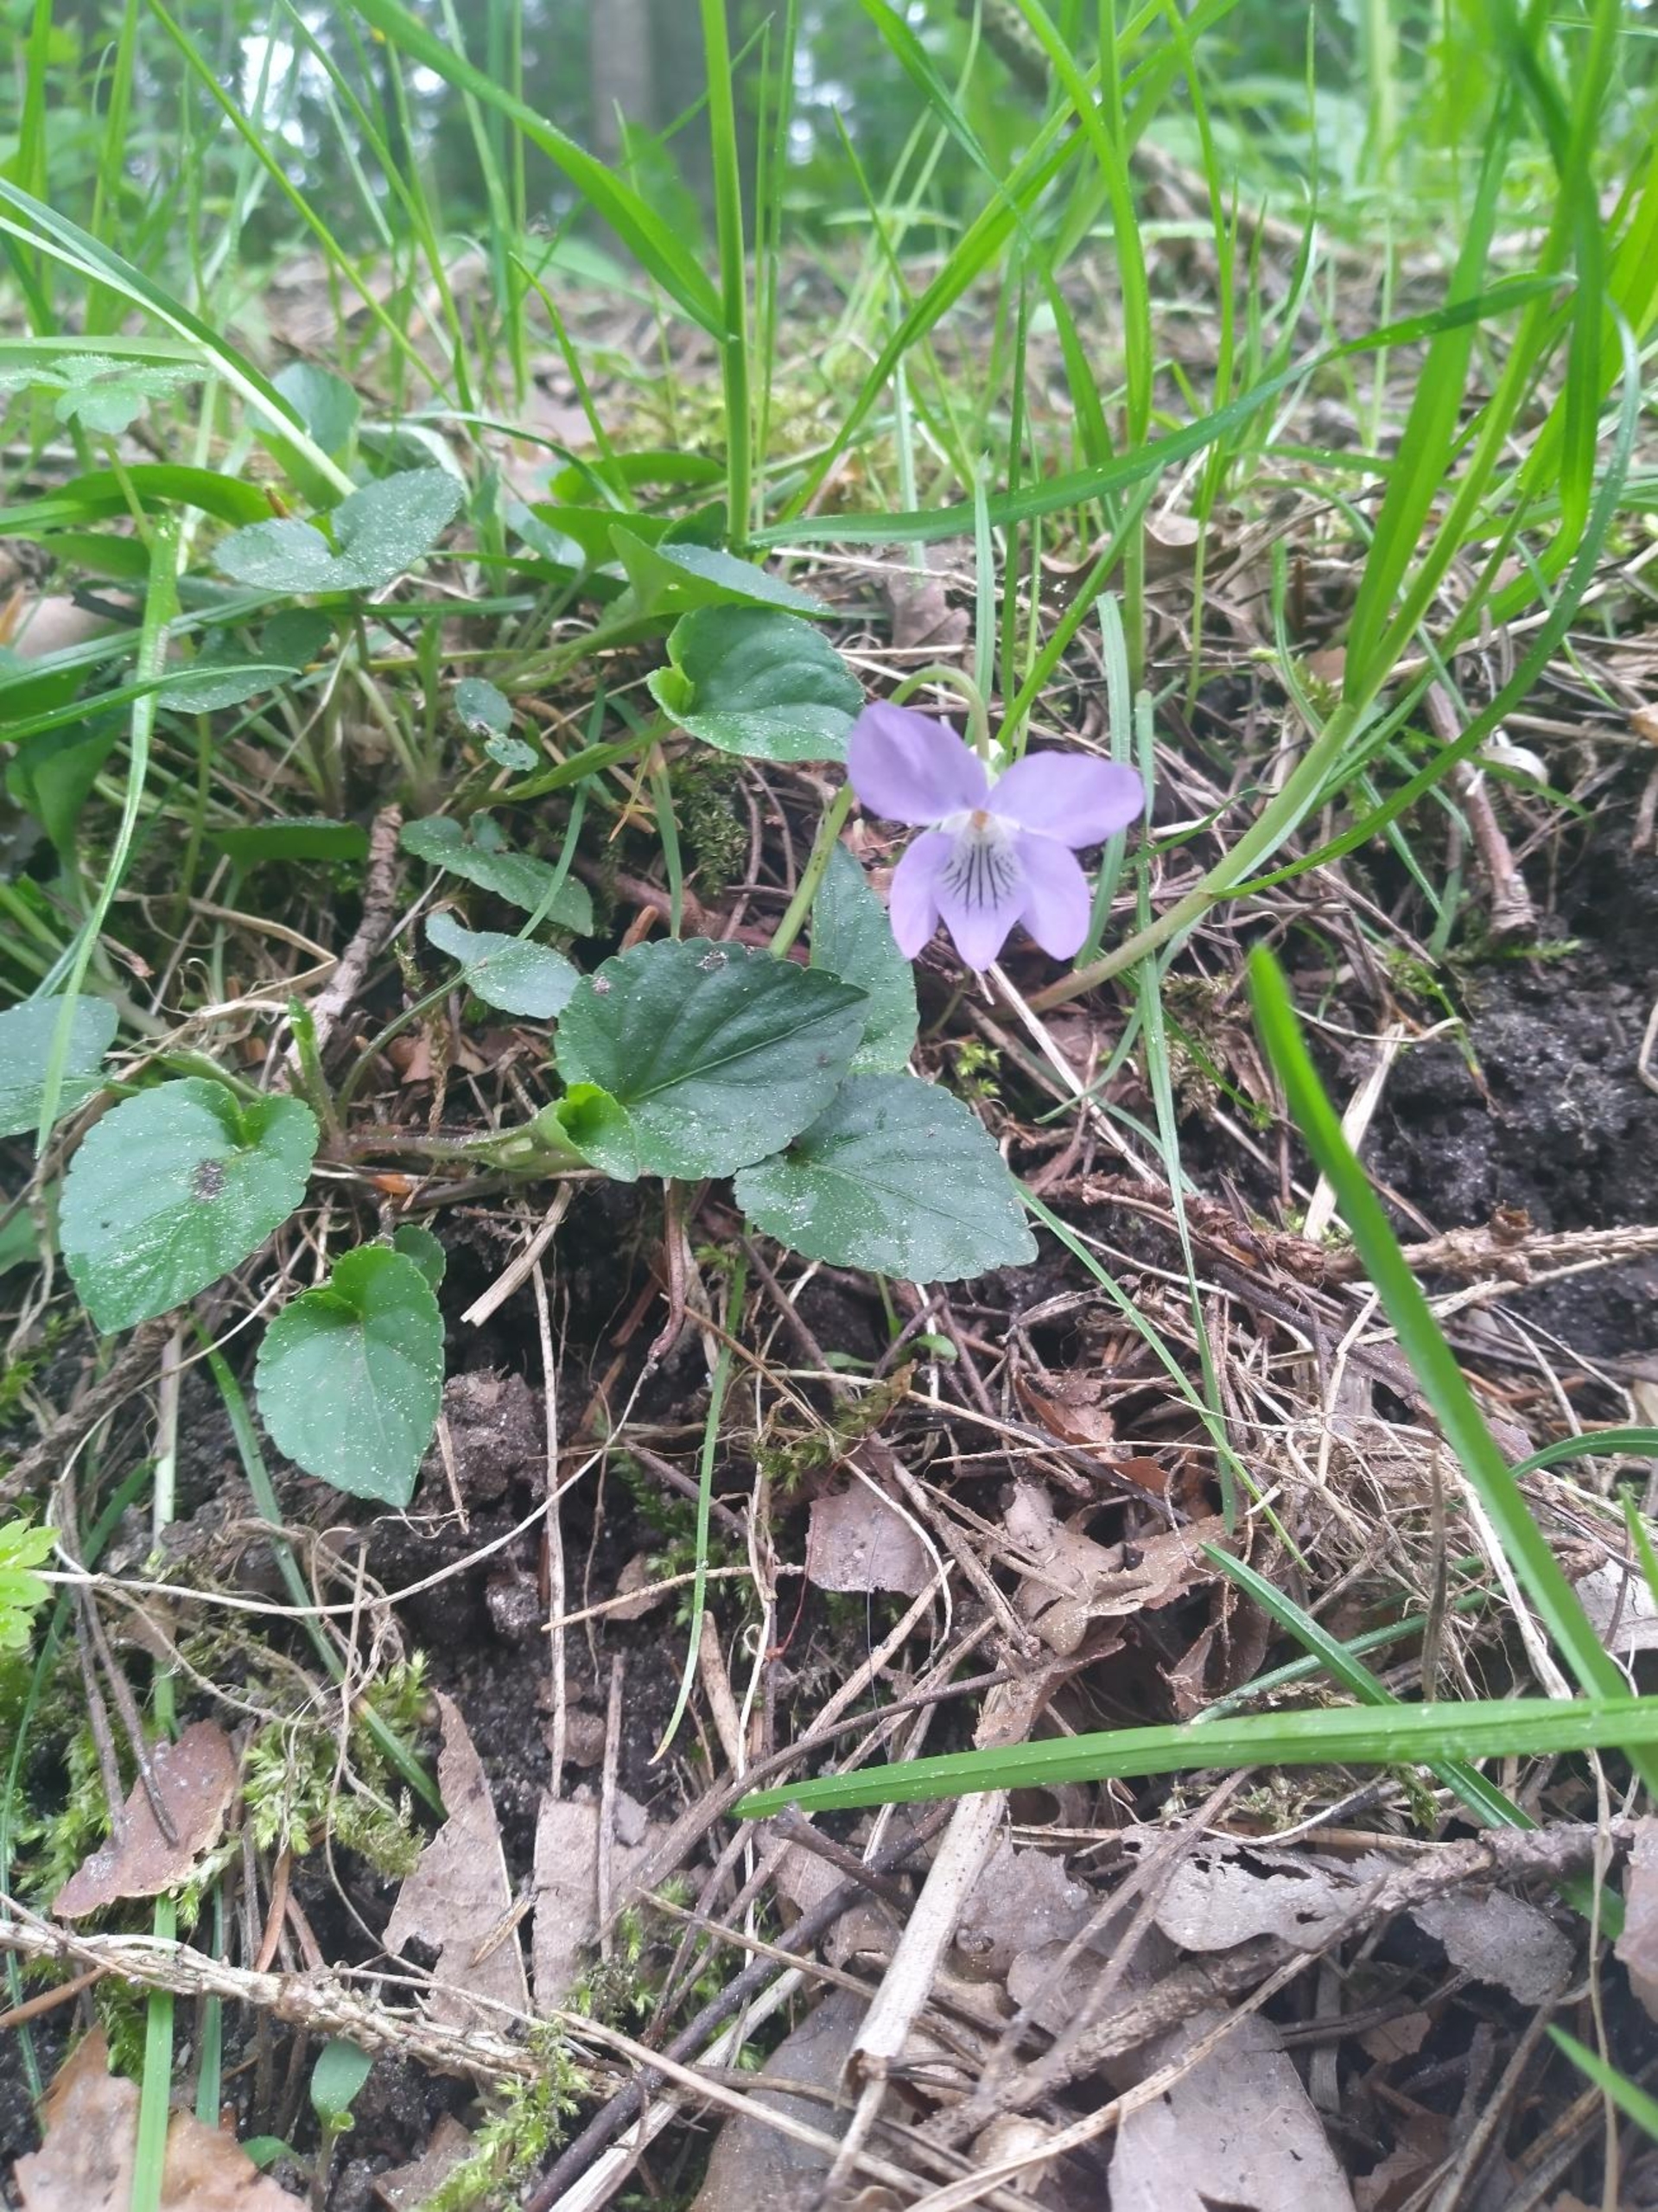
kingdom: Plantae
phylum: Tracheophyta
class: Magnoliopsida
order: Malpighiales
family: Violaceae
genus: Viola
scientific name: Viola riviniana
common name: Krat-viol
